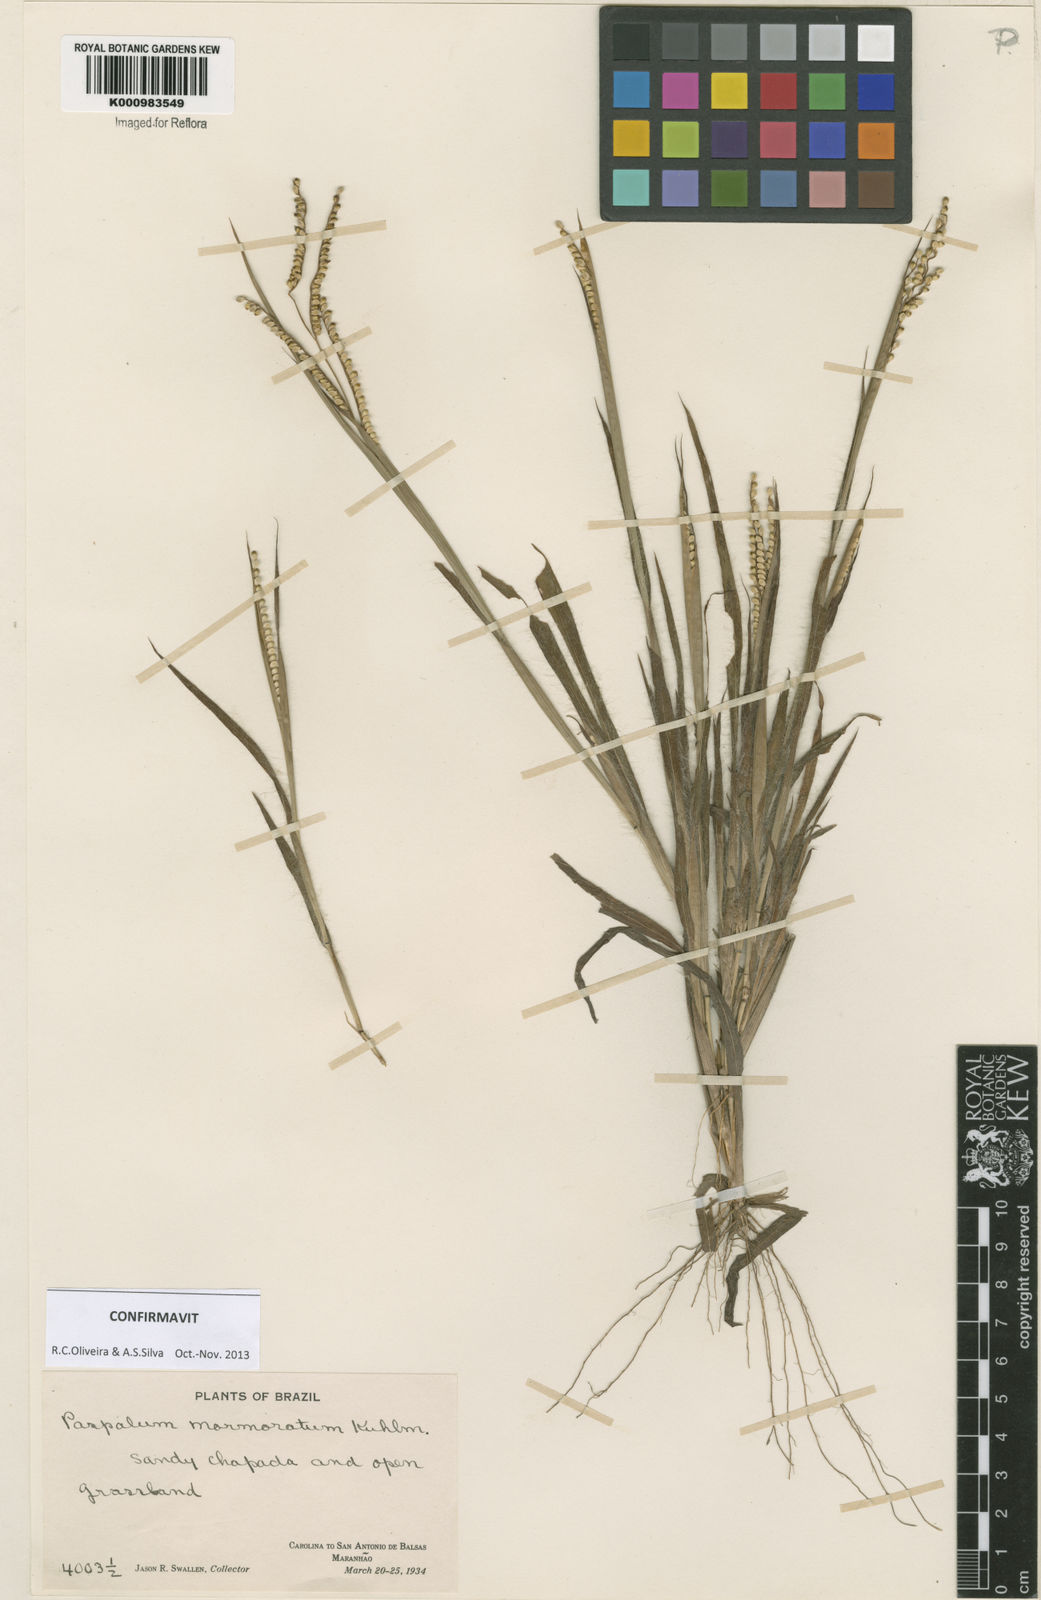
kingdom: Plantae
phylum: Tracheophyta
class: Liliopsida
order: Poales
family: Poaceae
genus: Paspalum
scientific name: Paspalum marmoratum
